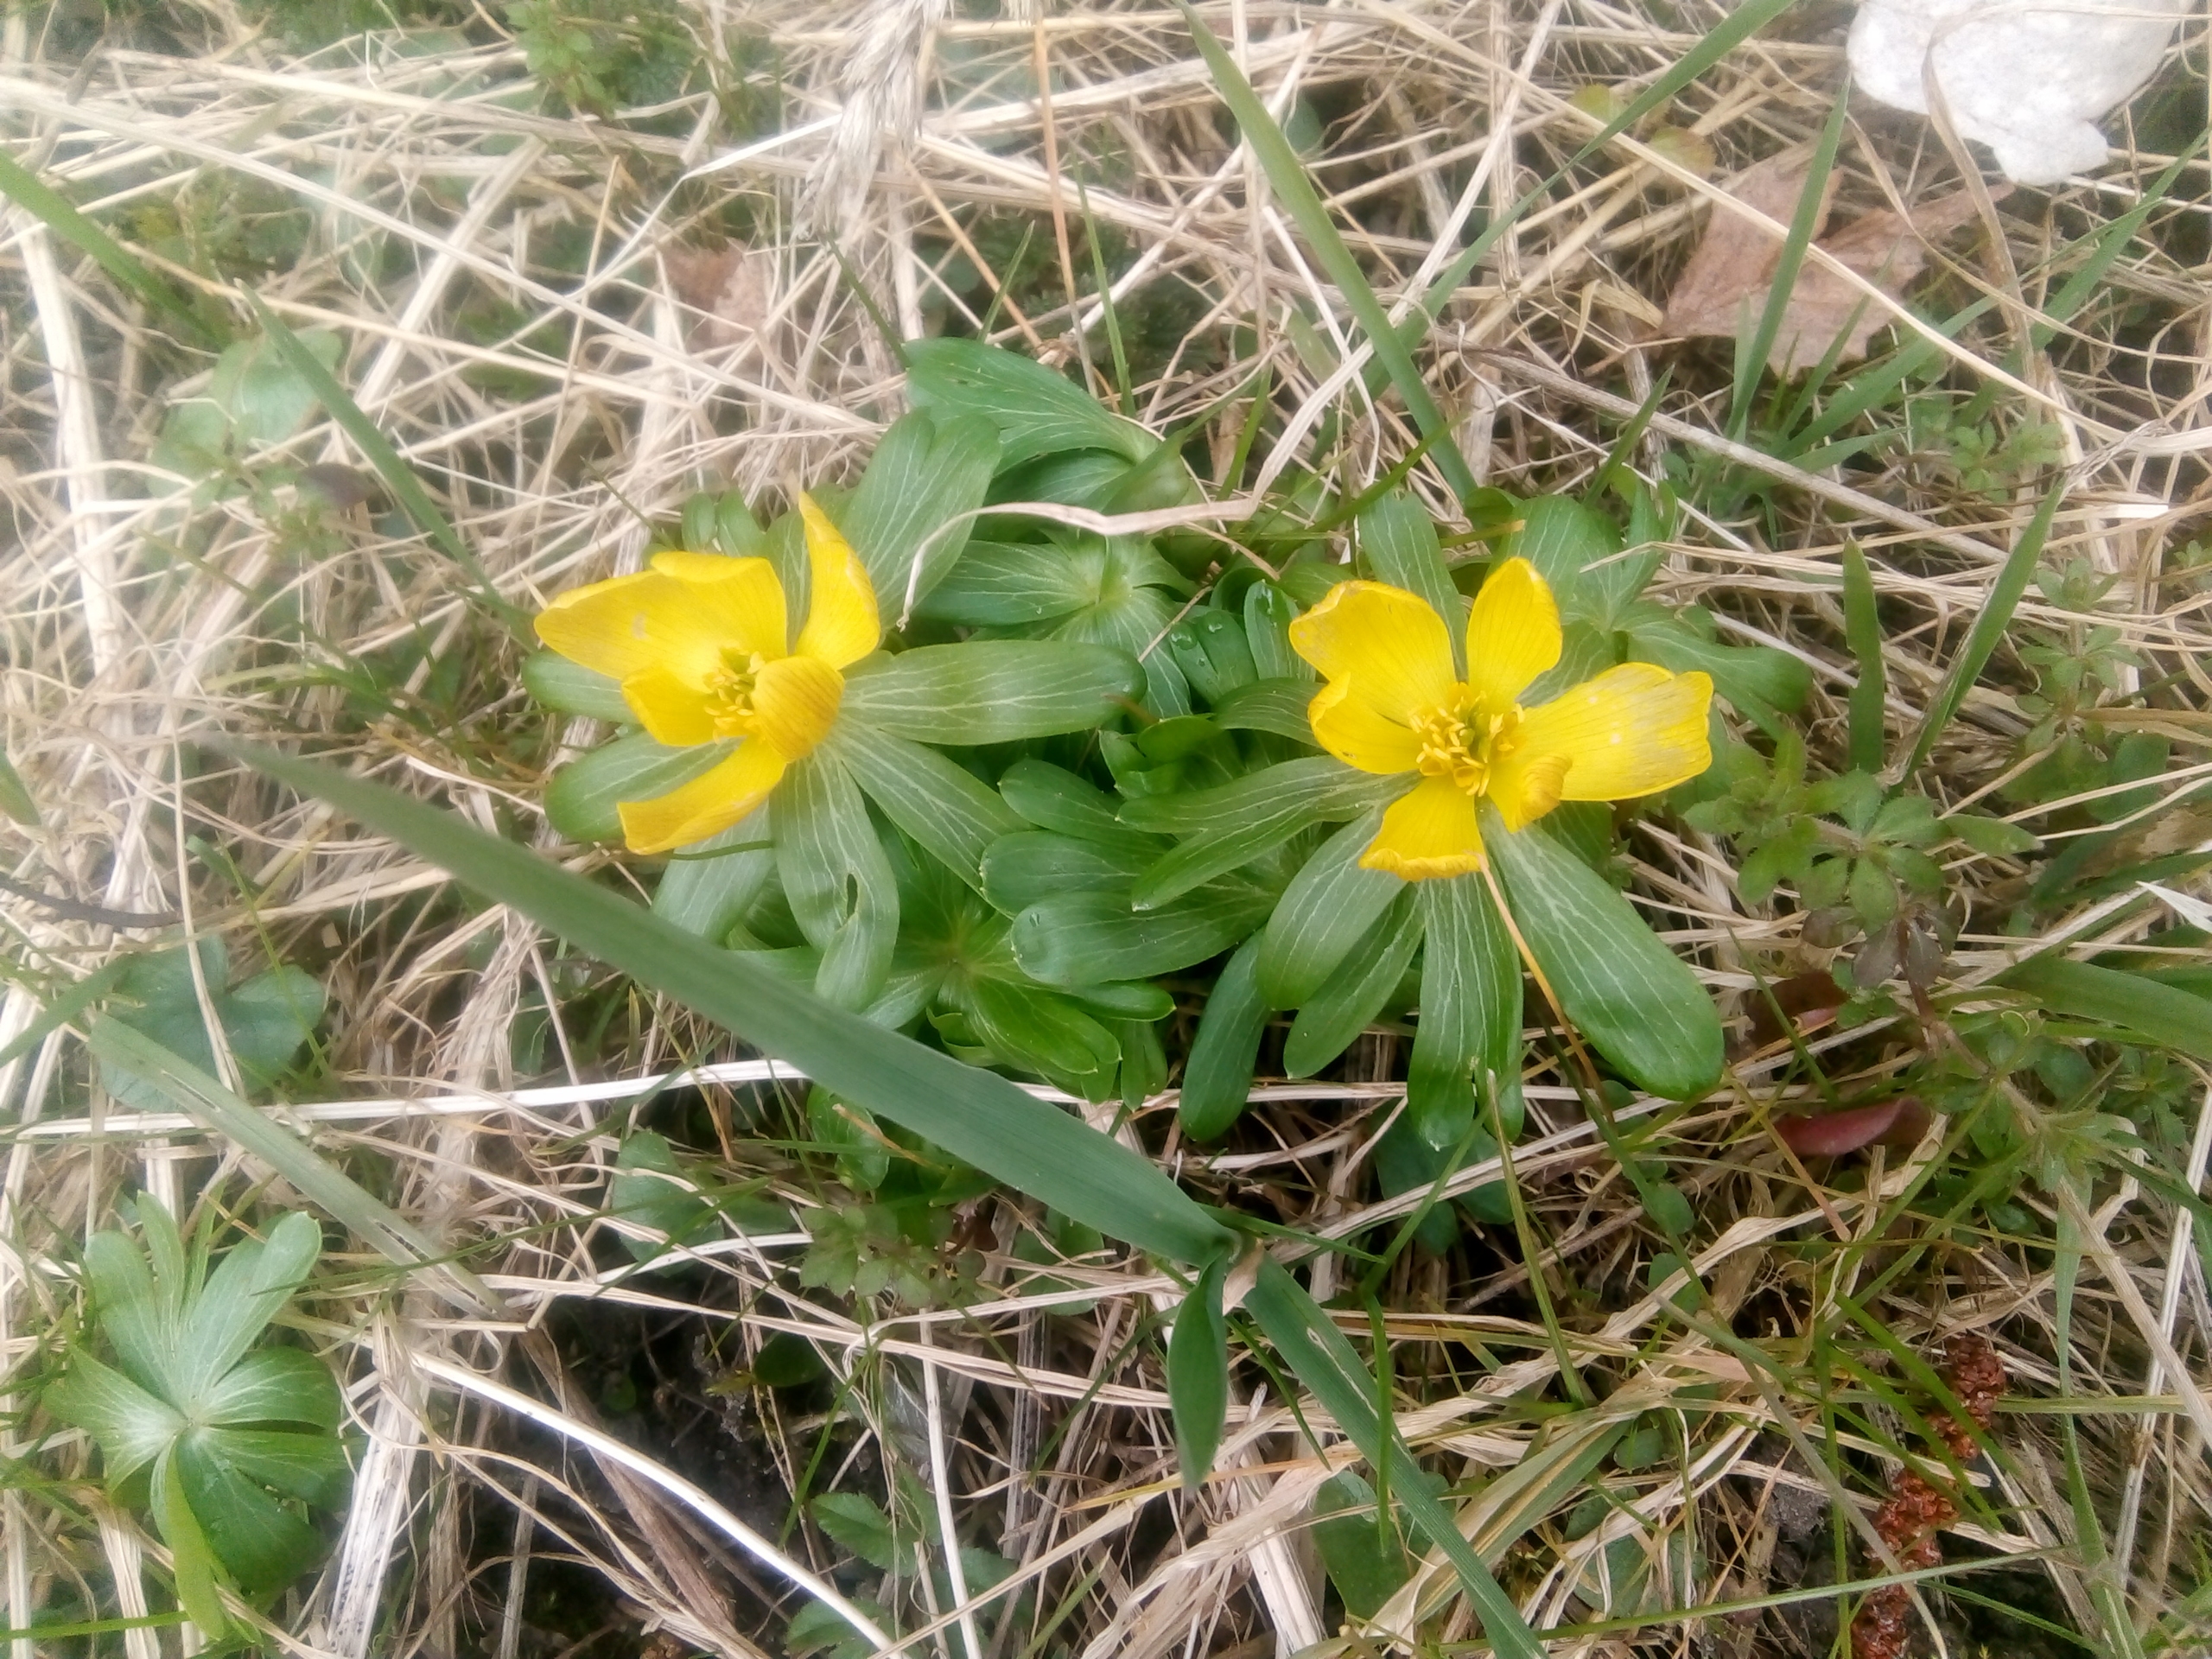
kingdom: Plantae
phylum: Tracheophyta
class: Magnoliopsida
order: Ranunculales
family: Ranunculaceae
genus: Eranthis
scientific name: Eranthis hyemalis
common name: Erantis
